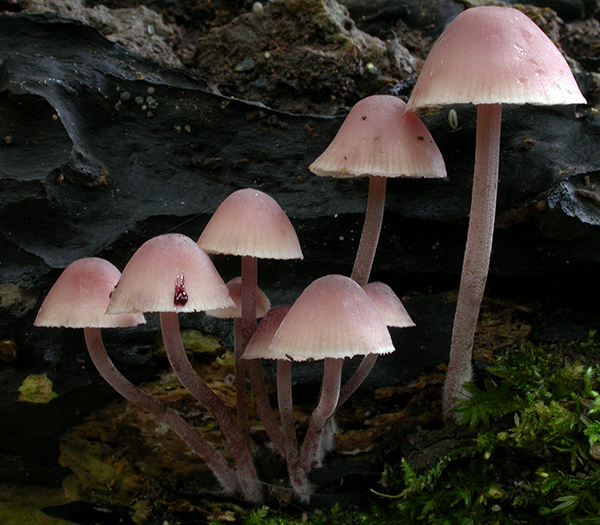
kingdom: Fungi
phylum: Basidiomycota
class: Agaricomycetes
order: Agaricales
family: Mycenaceae
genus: Mycena
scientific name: Mycena haematopus
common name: blødende huesvamp
